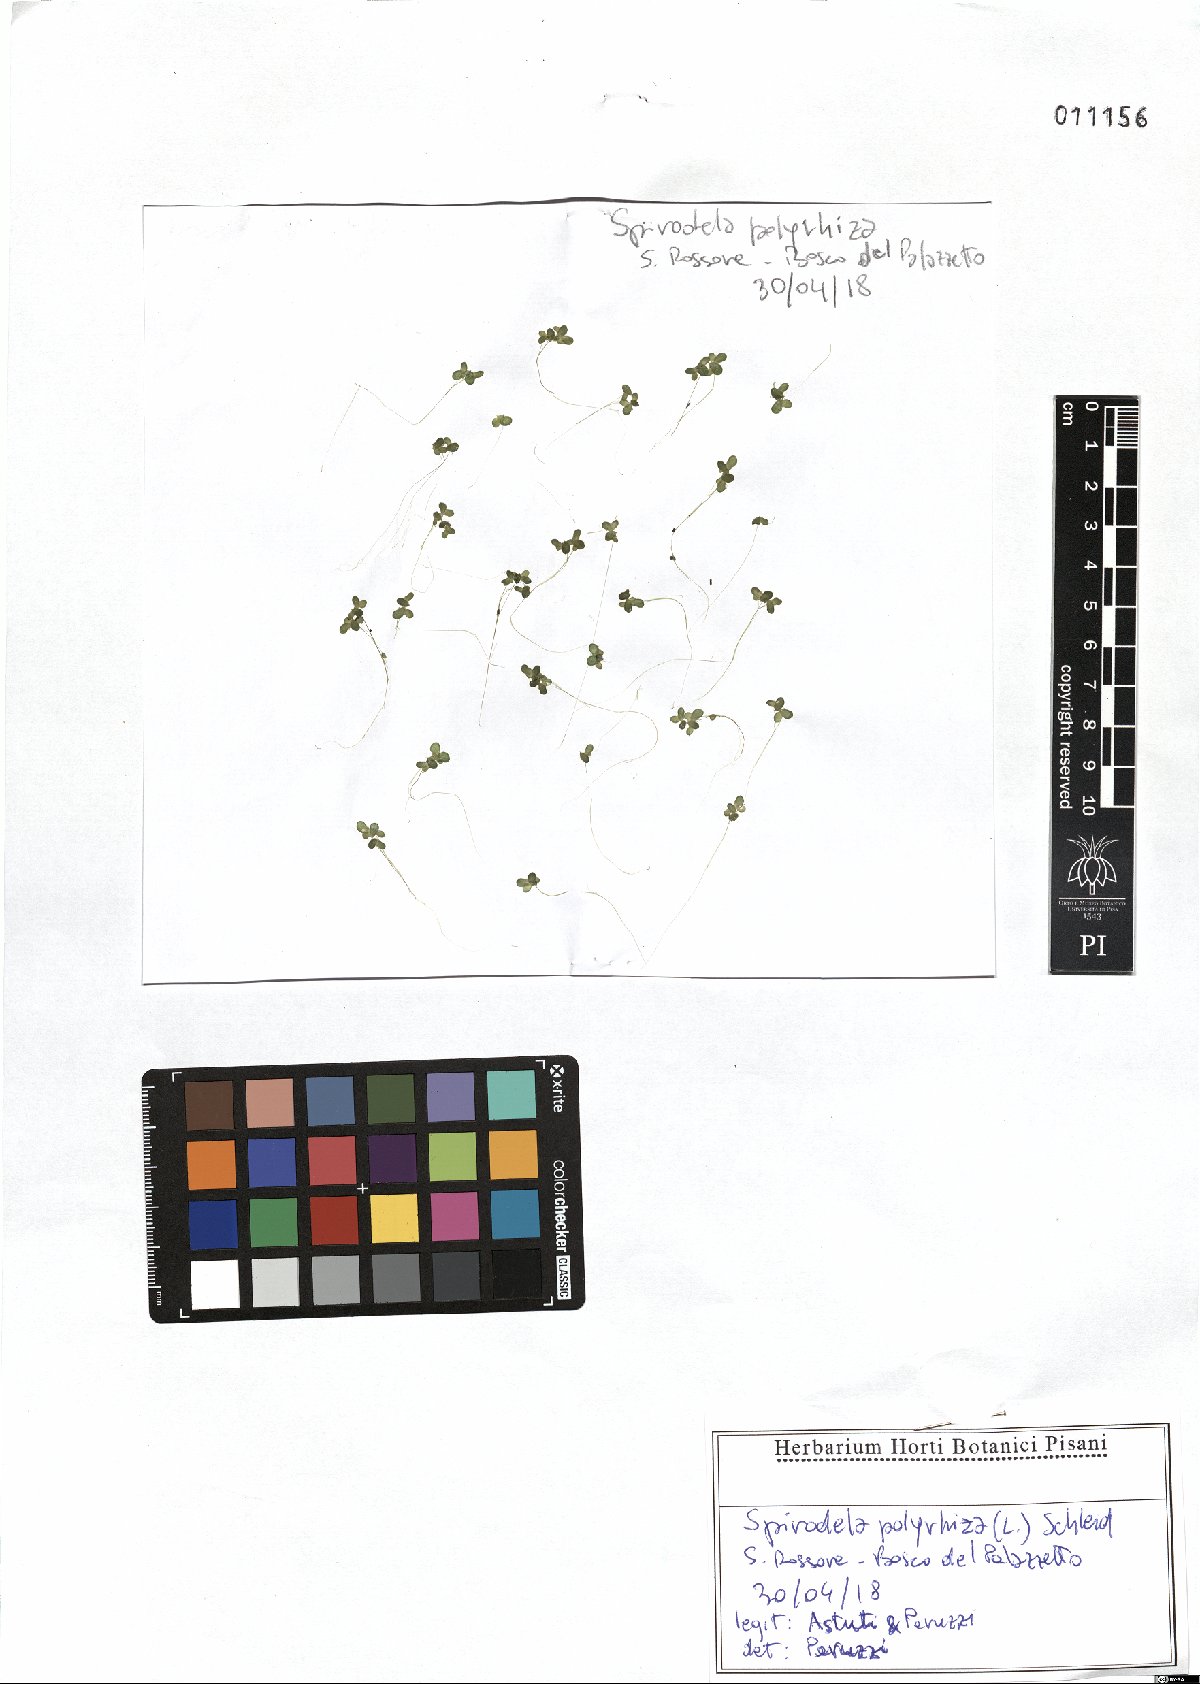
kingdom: Plantae
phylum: Tracheophyta
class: Liliopsida
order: Alismatales
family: Araceae
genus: Spirodela
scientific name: Spirodela polyrhiza
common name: Great duckweed
